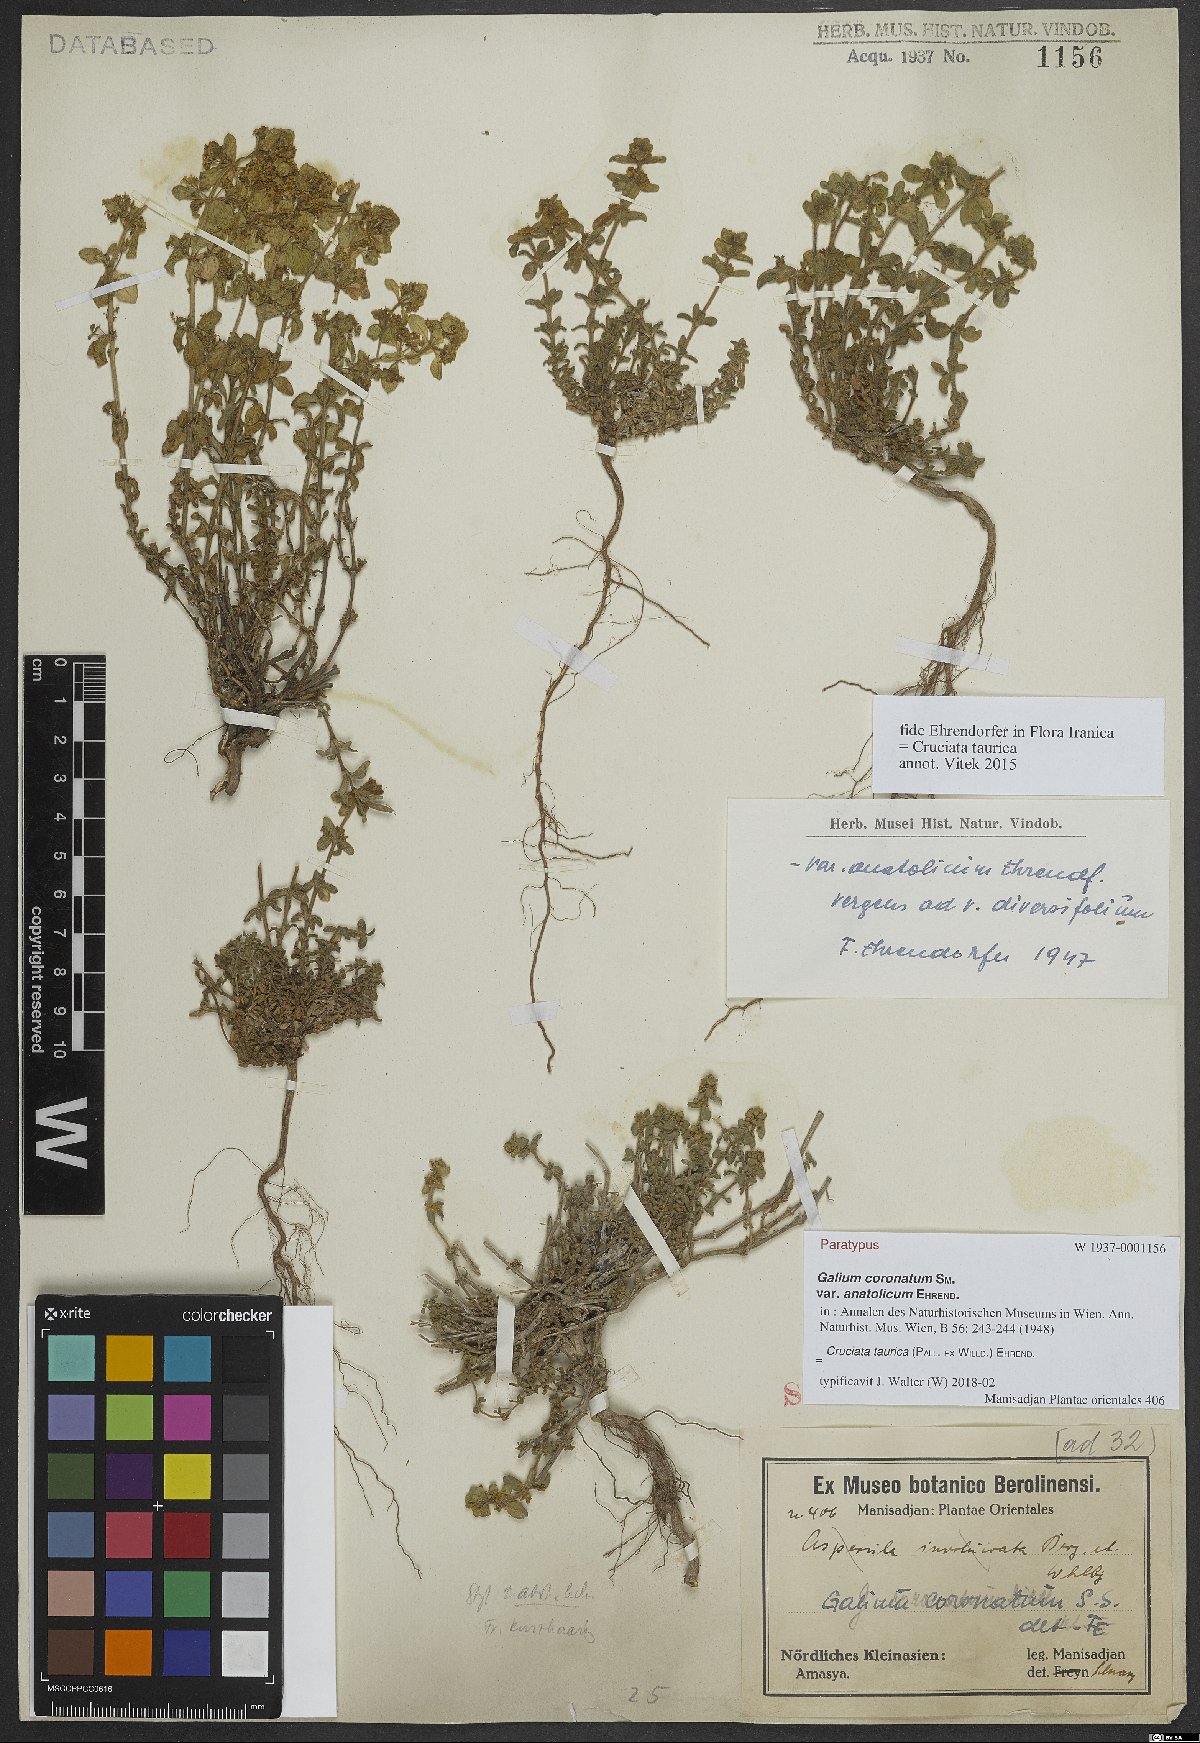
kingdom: Plantae
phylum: Tracheophyta
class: Magnoliopsida
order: Gentianales
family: Rubiaceae
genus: Cruciata
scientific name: Cruciata taurica
